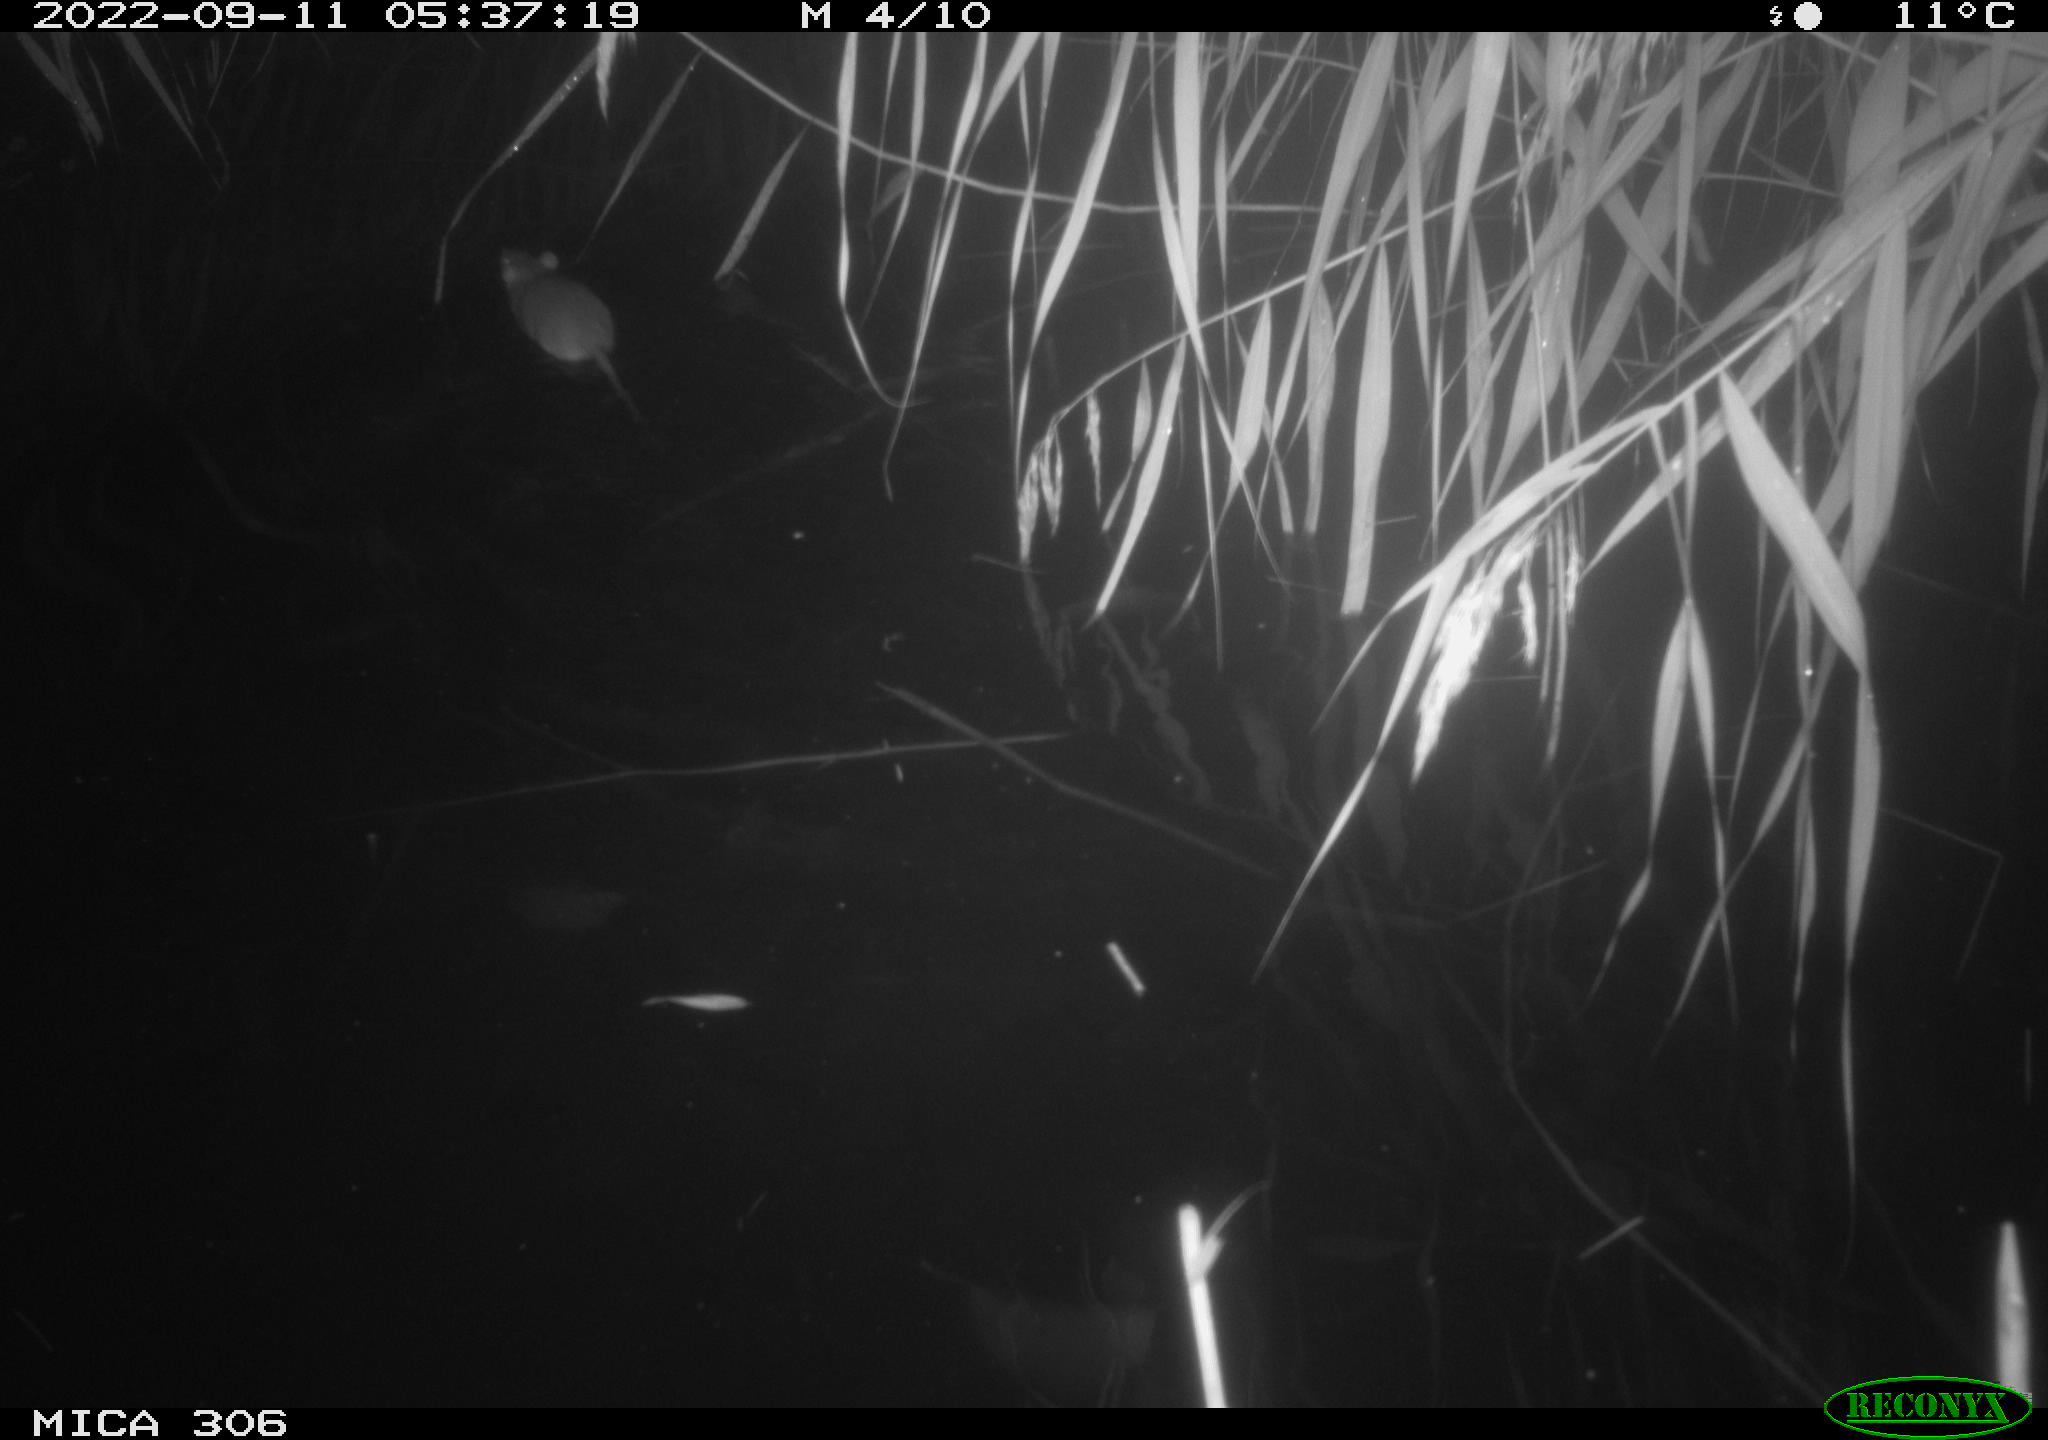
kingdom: Animalia
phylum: Chordata
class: Mammalia
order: Rodentia
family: Muridae
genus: Rattus
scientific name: Rattus norvegicus
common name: Brown rat
